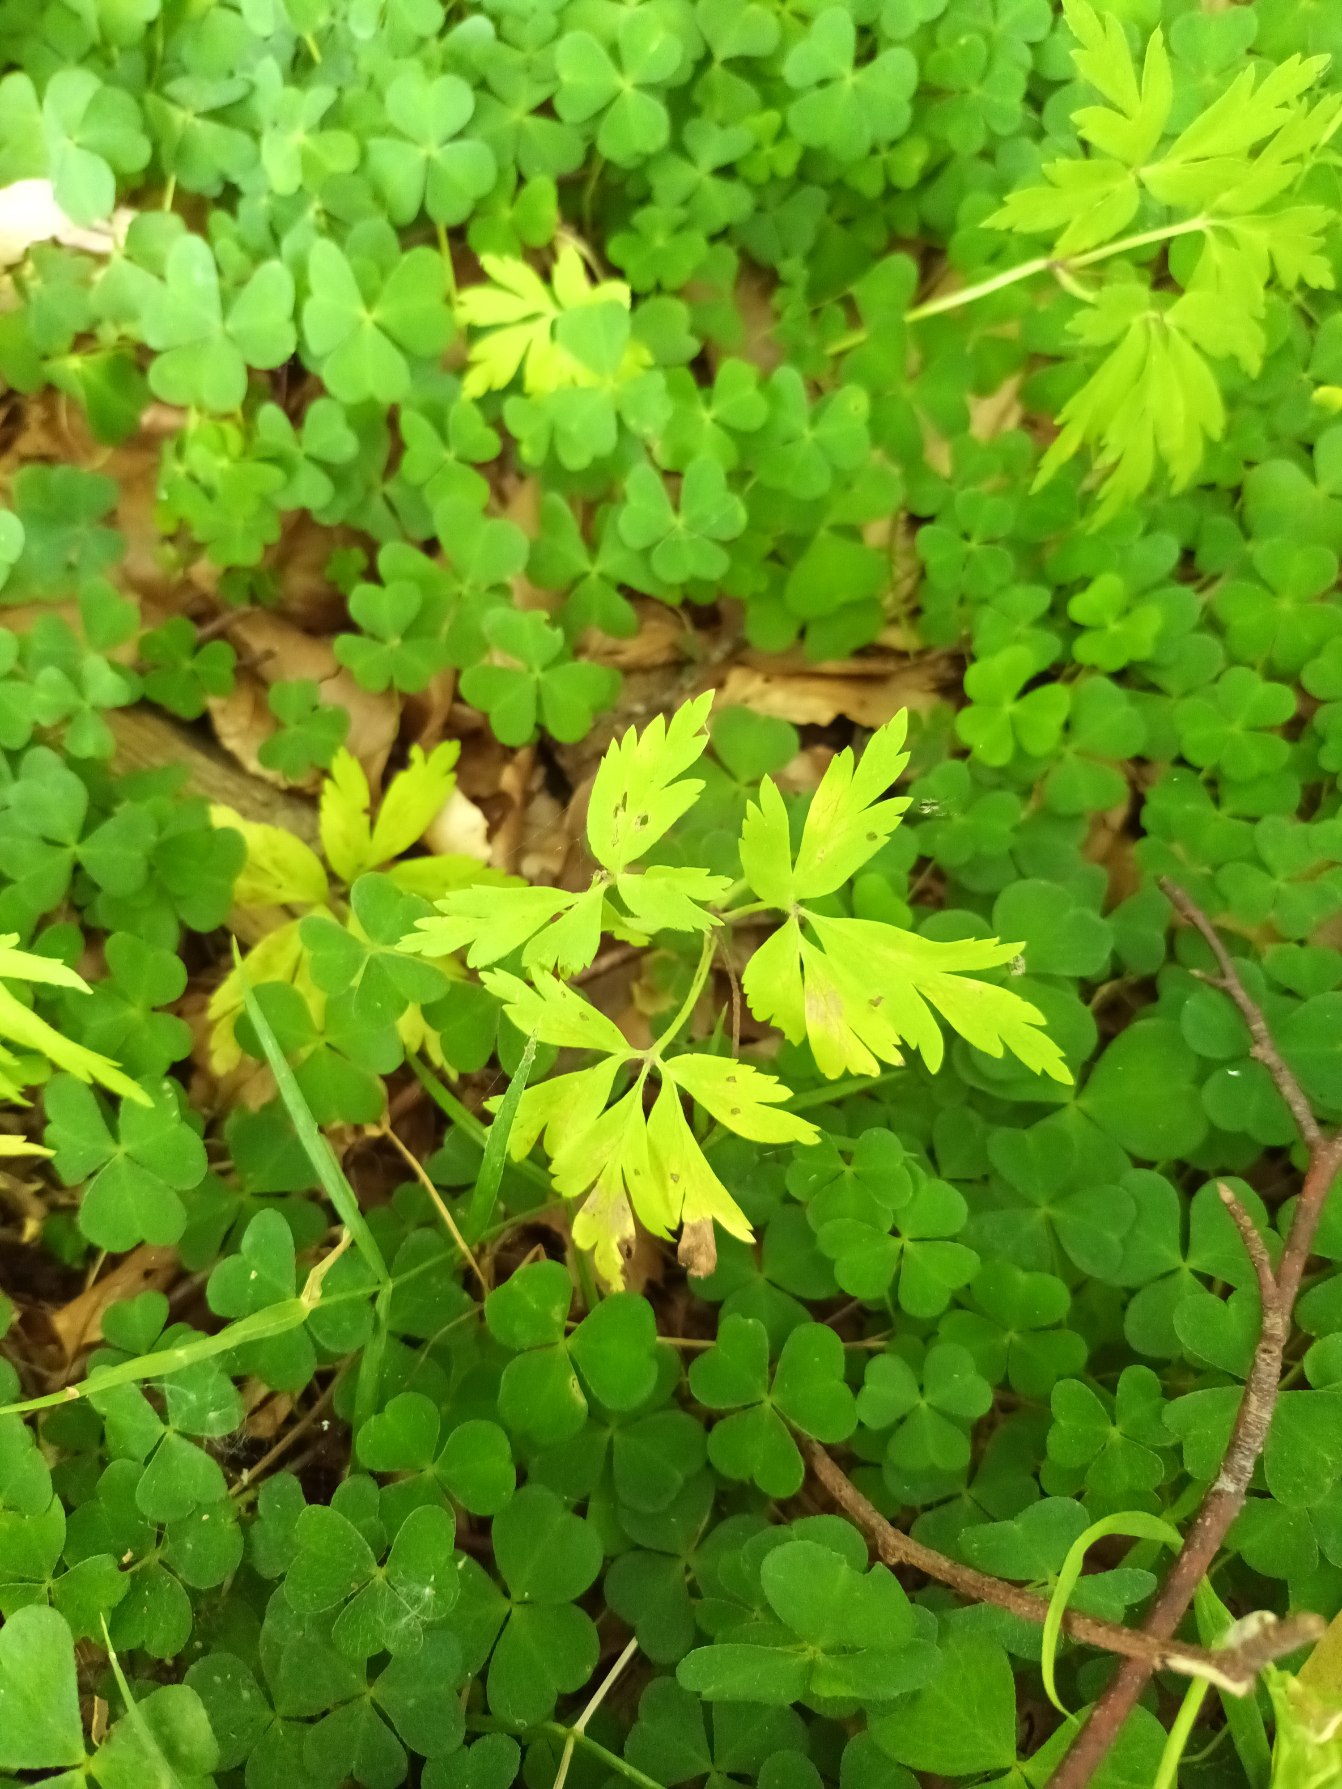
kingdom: Plantae
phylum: Tracheophyta
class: Magnoliopsida
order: Ranunculales
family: Ranunculaceae
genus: Anemone
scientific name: Anemone nemorosa
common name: Hvid anemone
